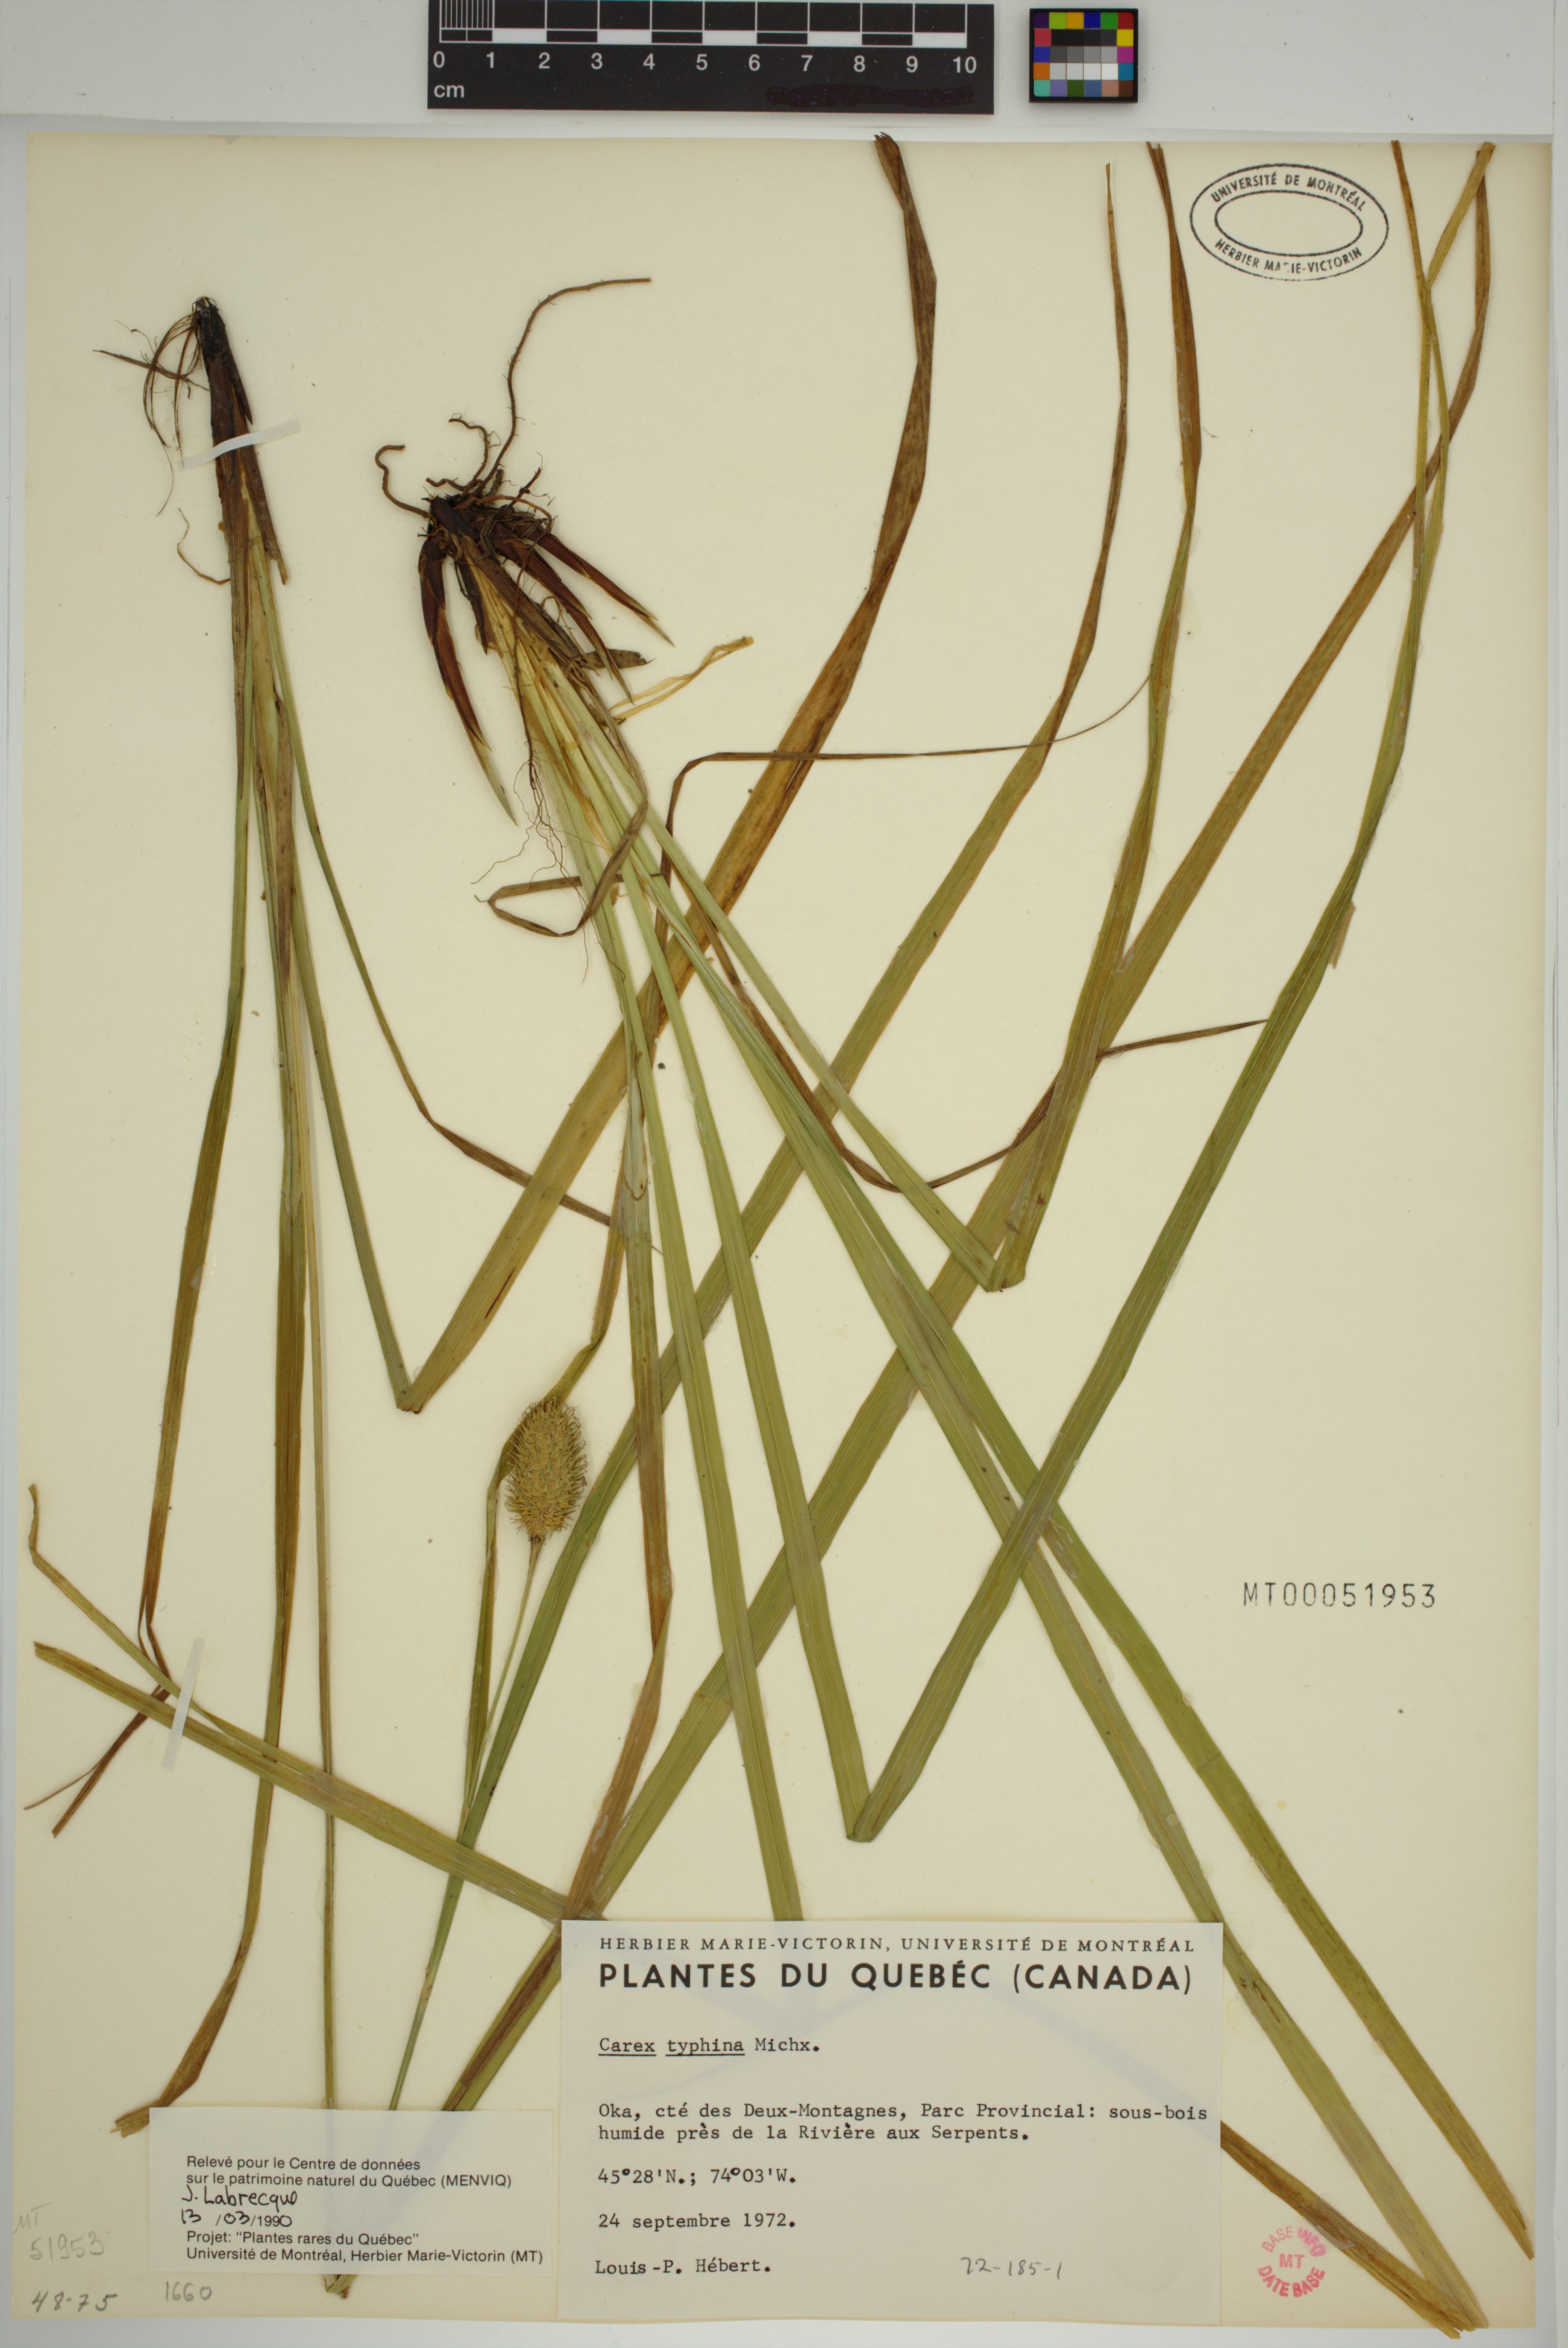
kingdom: Plantae
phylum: Tracheophyta
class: Liliopsida
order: Poales
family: Cyperaceae
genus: Carex
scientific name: Carex typhina
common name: Cattail sedge
